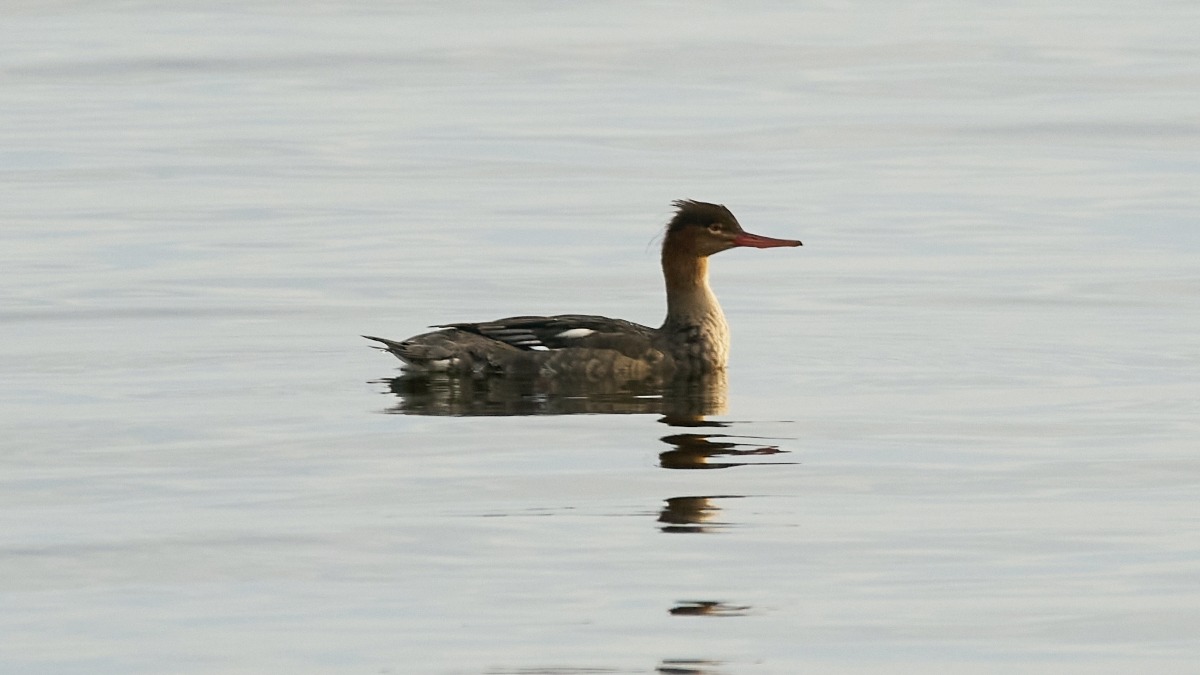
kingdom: Animalia
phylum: Chordata
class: Aves
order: Anseriformes
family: Anatidae
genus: Mergus
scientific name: Mergus serrator
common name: Toppet skallesluger
